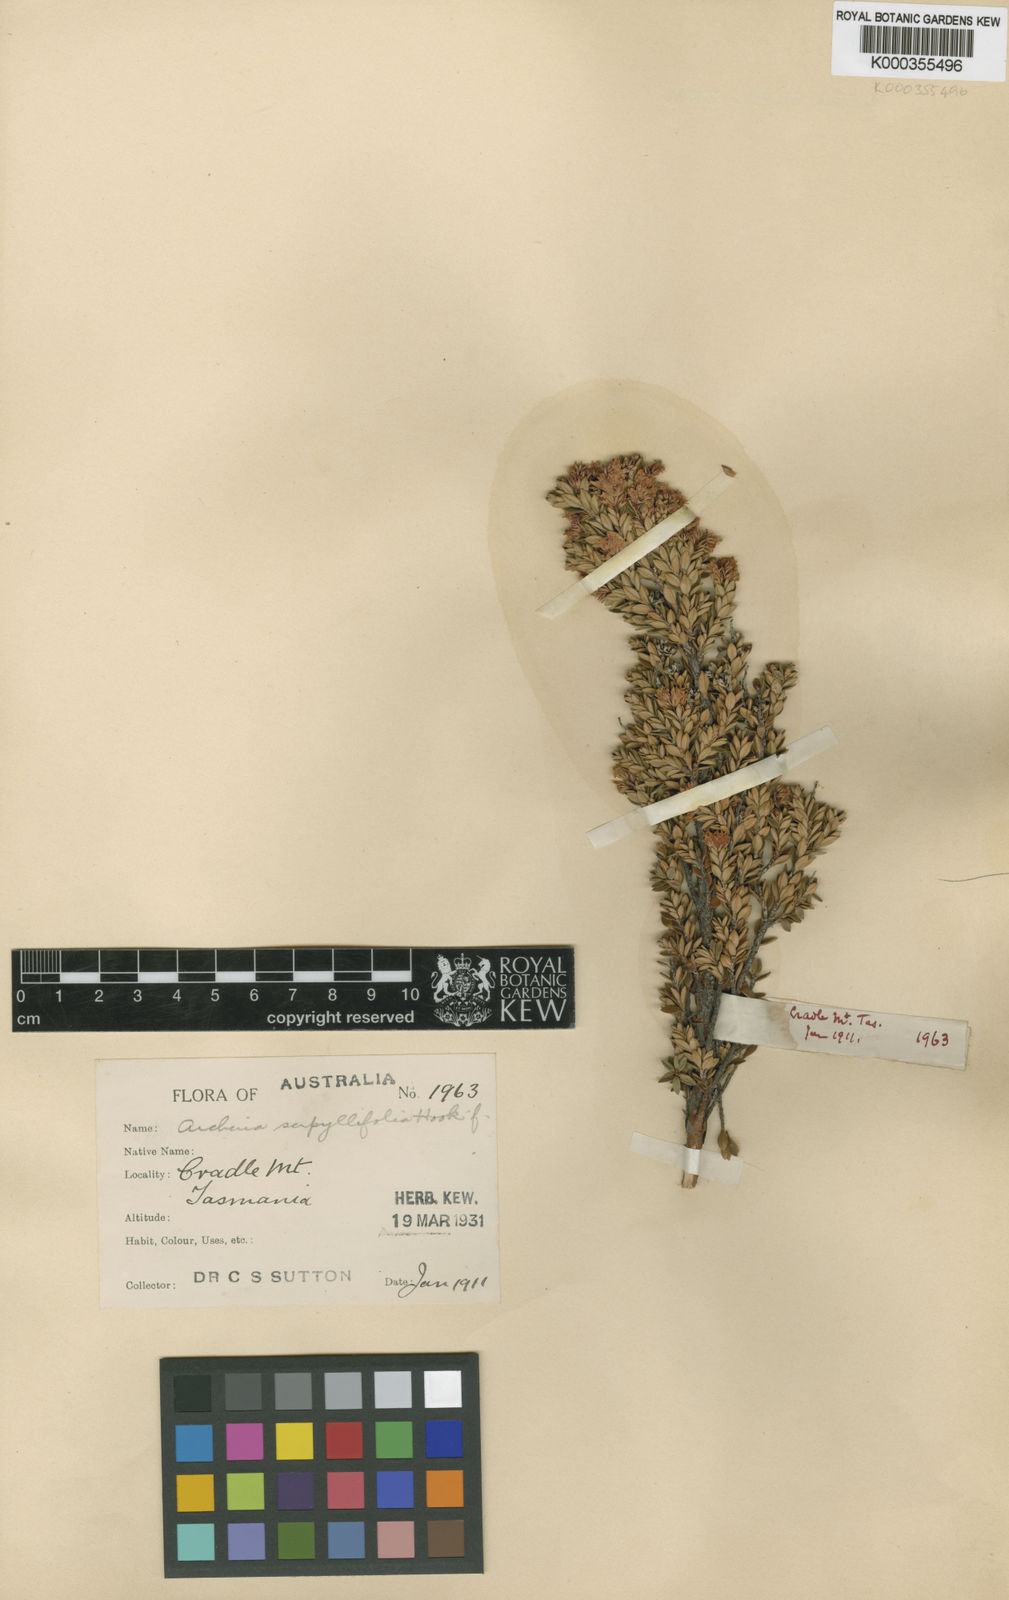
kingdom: Plantae
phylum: Tracheophyta
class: Magnoliopsida
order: Ericales
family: Ericaceae
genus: Archeria
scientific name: Archeria serpyllifolia
